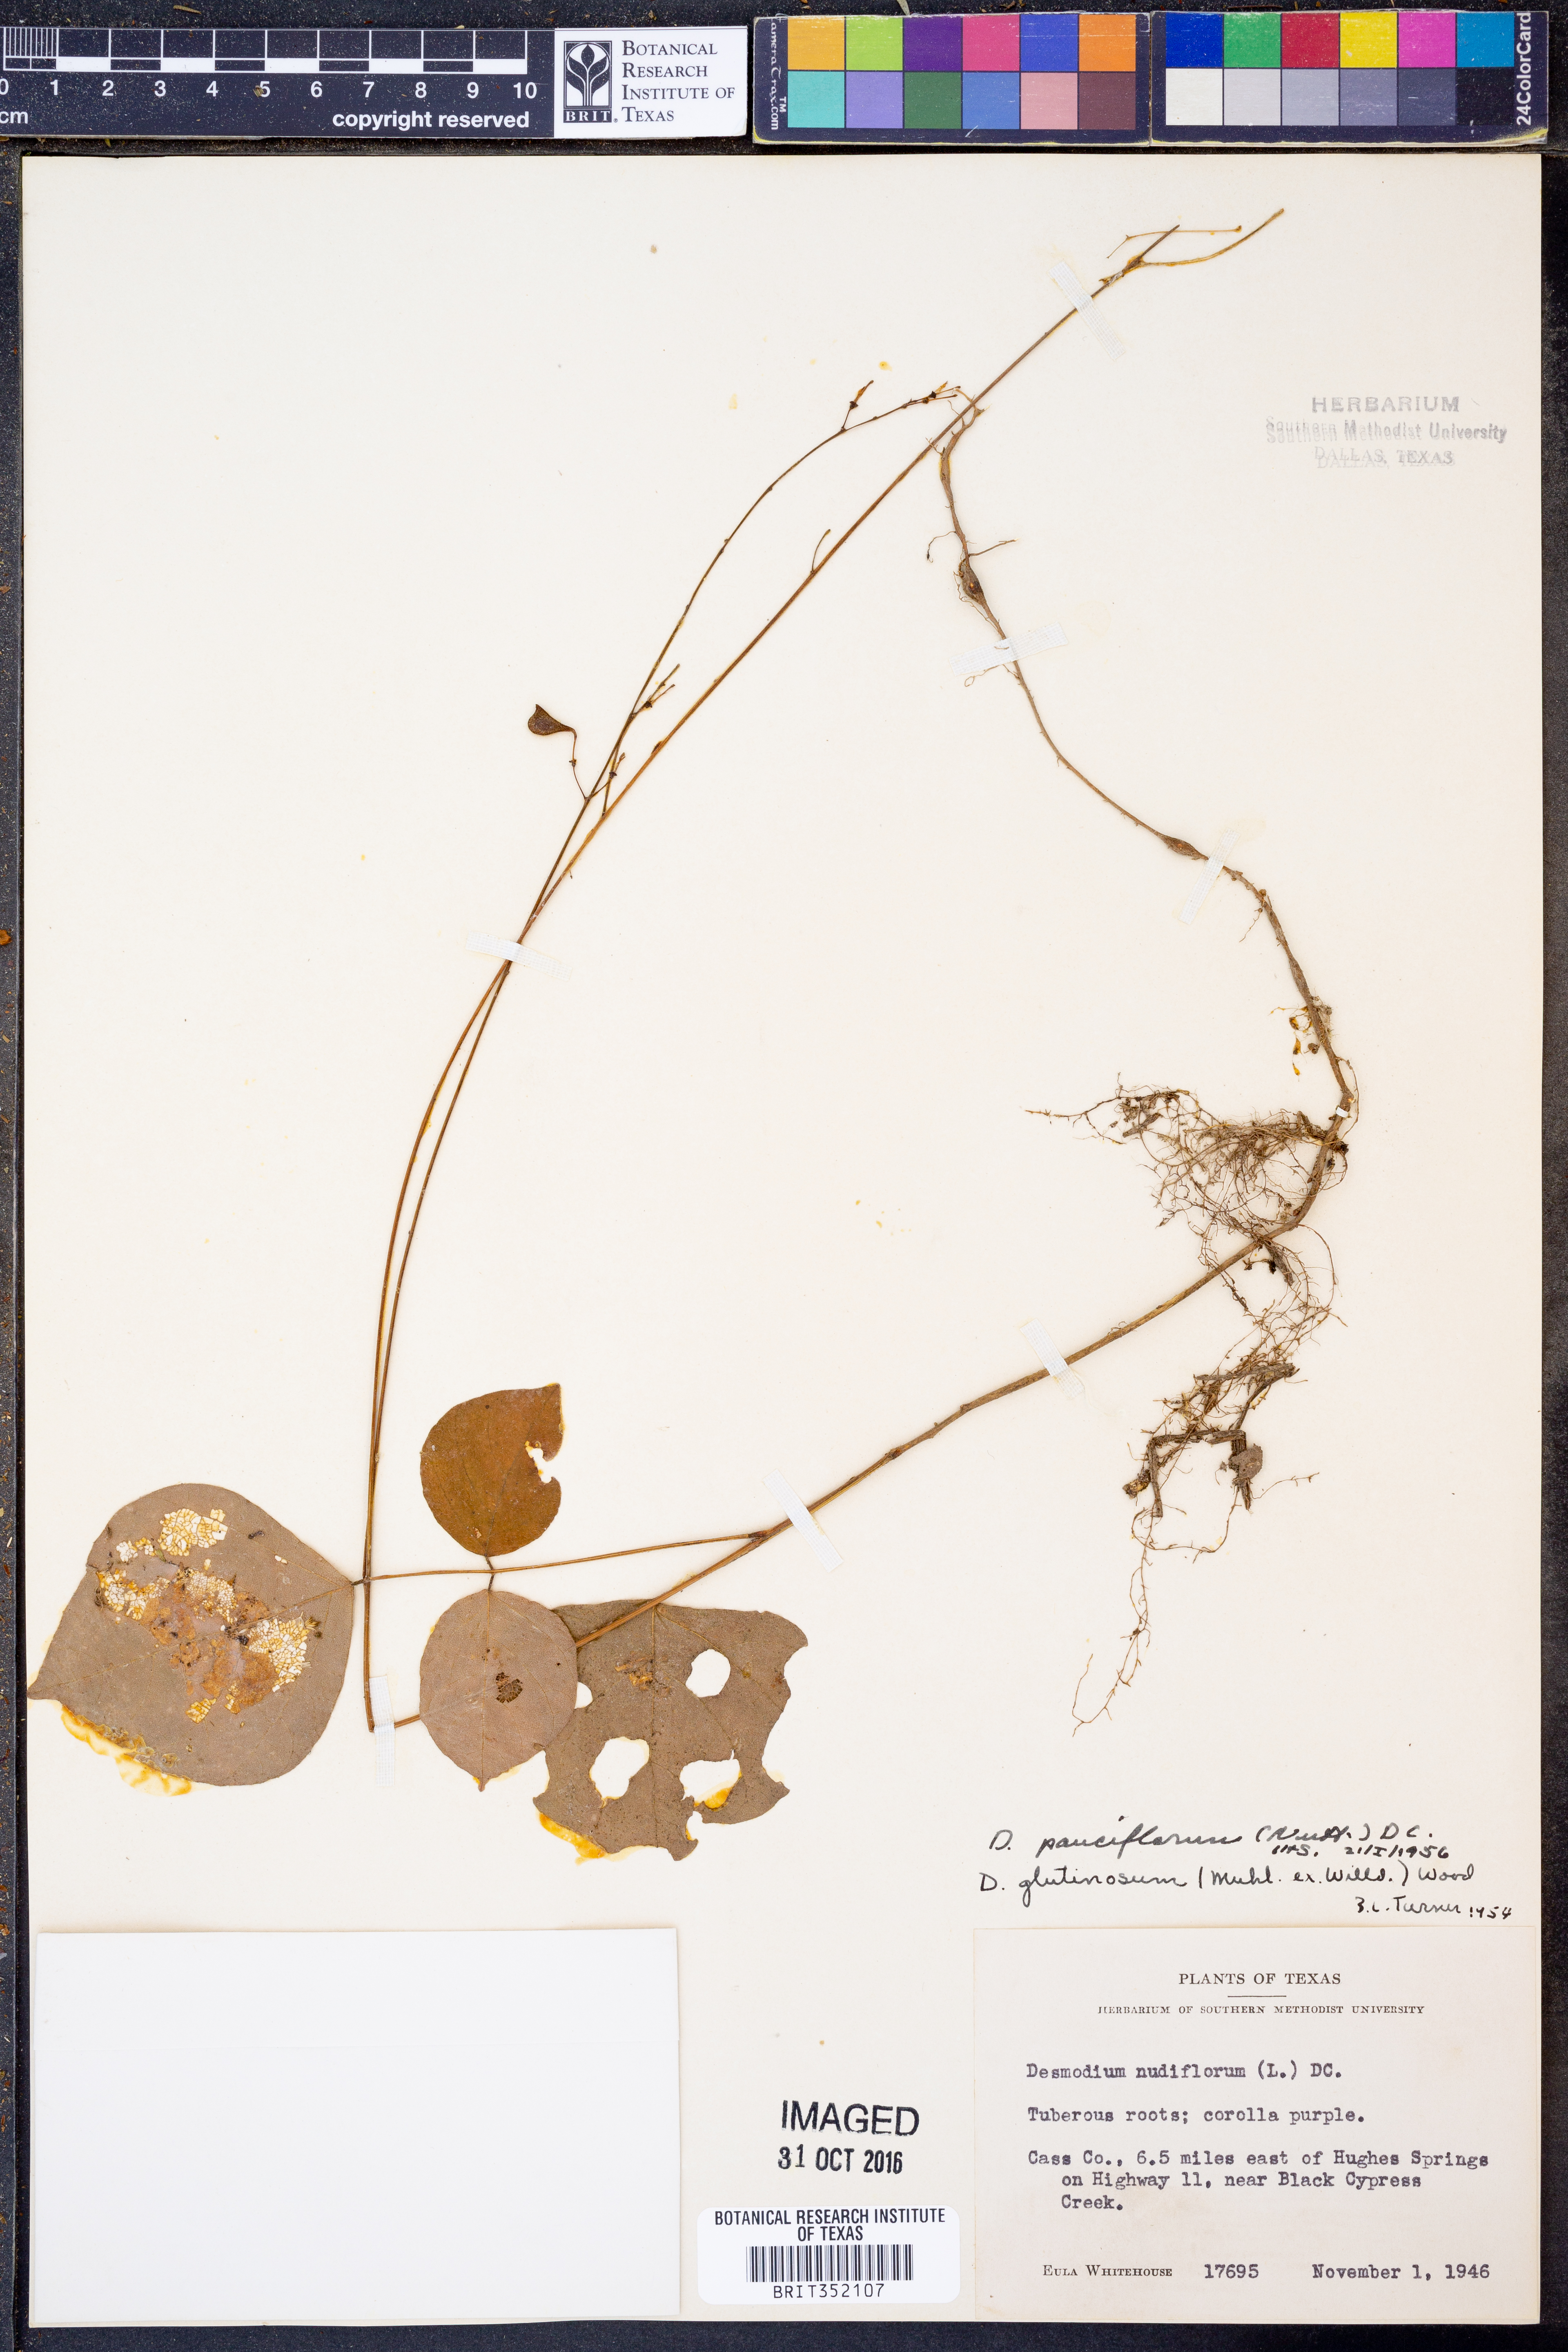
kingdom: Plantae
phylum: Tracheophyta
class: Magnoliopsida
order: Fabales
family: Fabaceae
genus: Hylodesmum
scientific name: Hylodesmum pauciflorum
